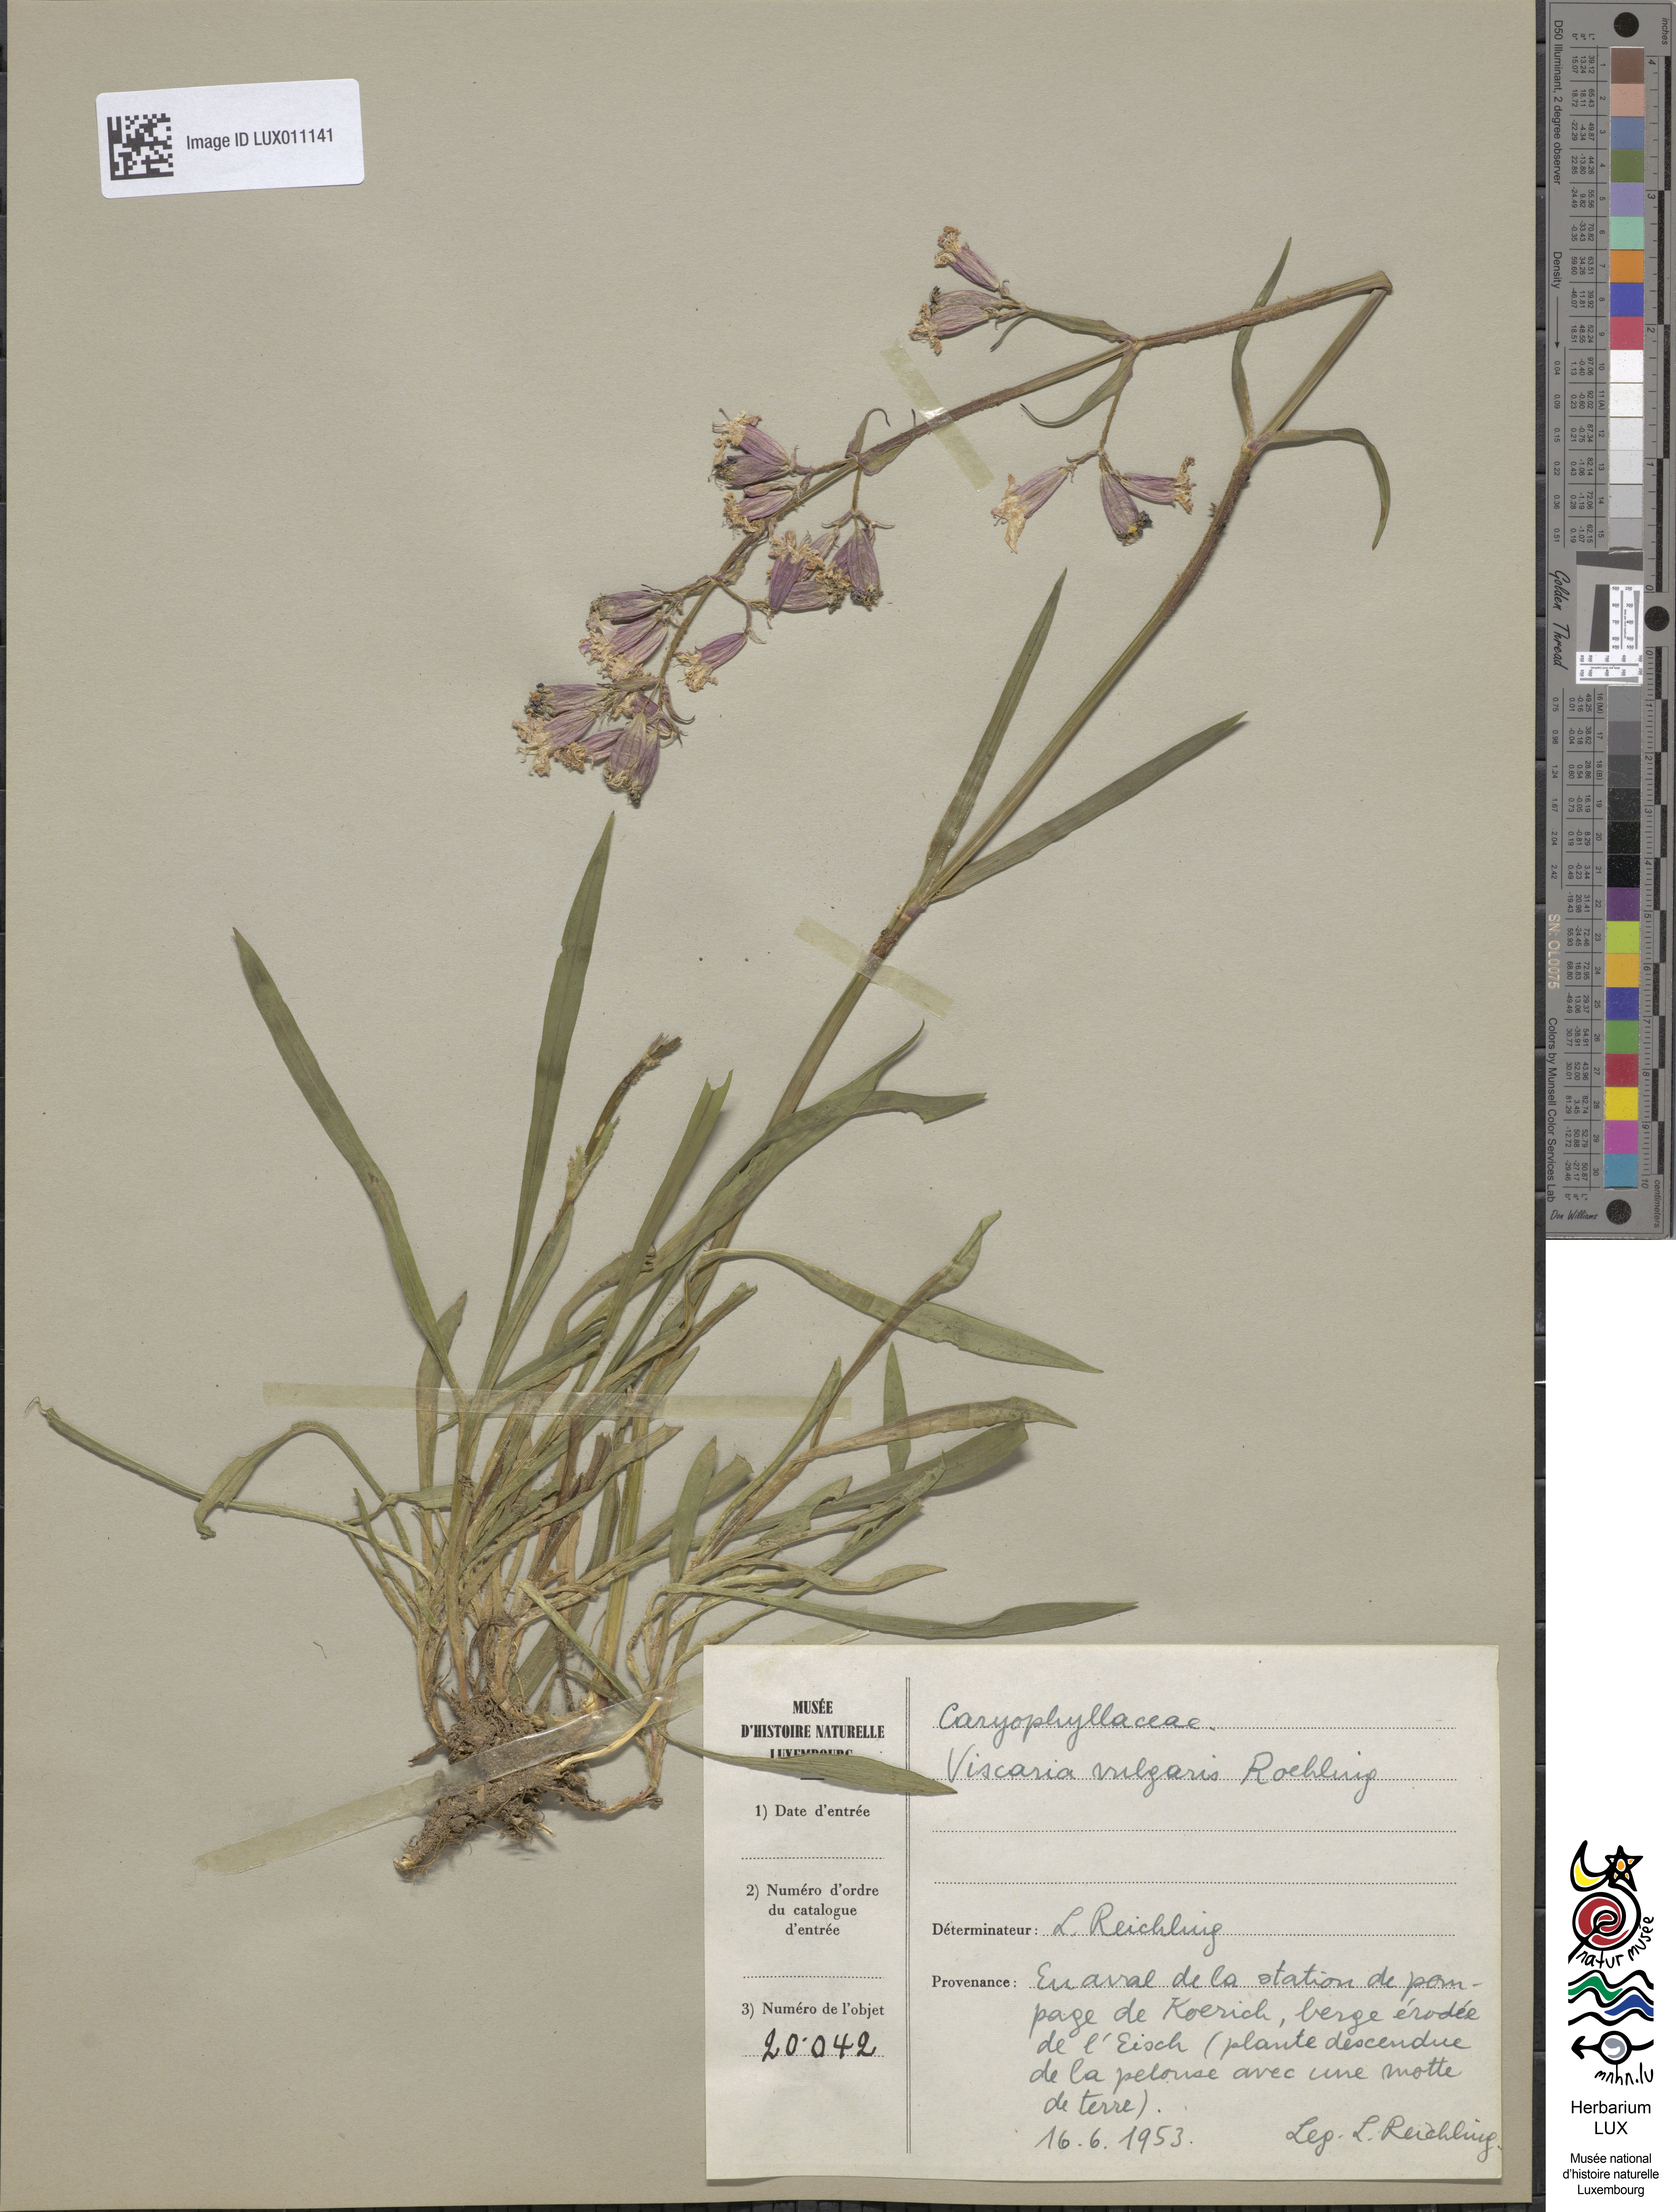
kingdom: Plantae
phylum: Tracheophyta
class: Magnoliopsida
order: Caryophyllales
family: Caryophyllaceae
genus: Viscaria
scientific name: Viscaria vulgaris
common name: Clammy campion
